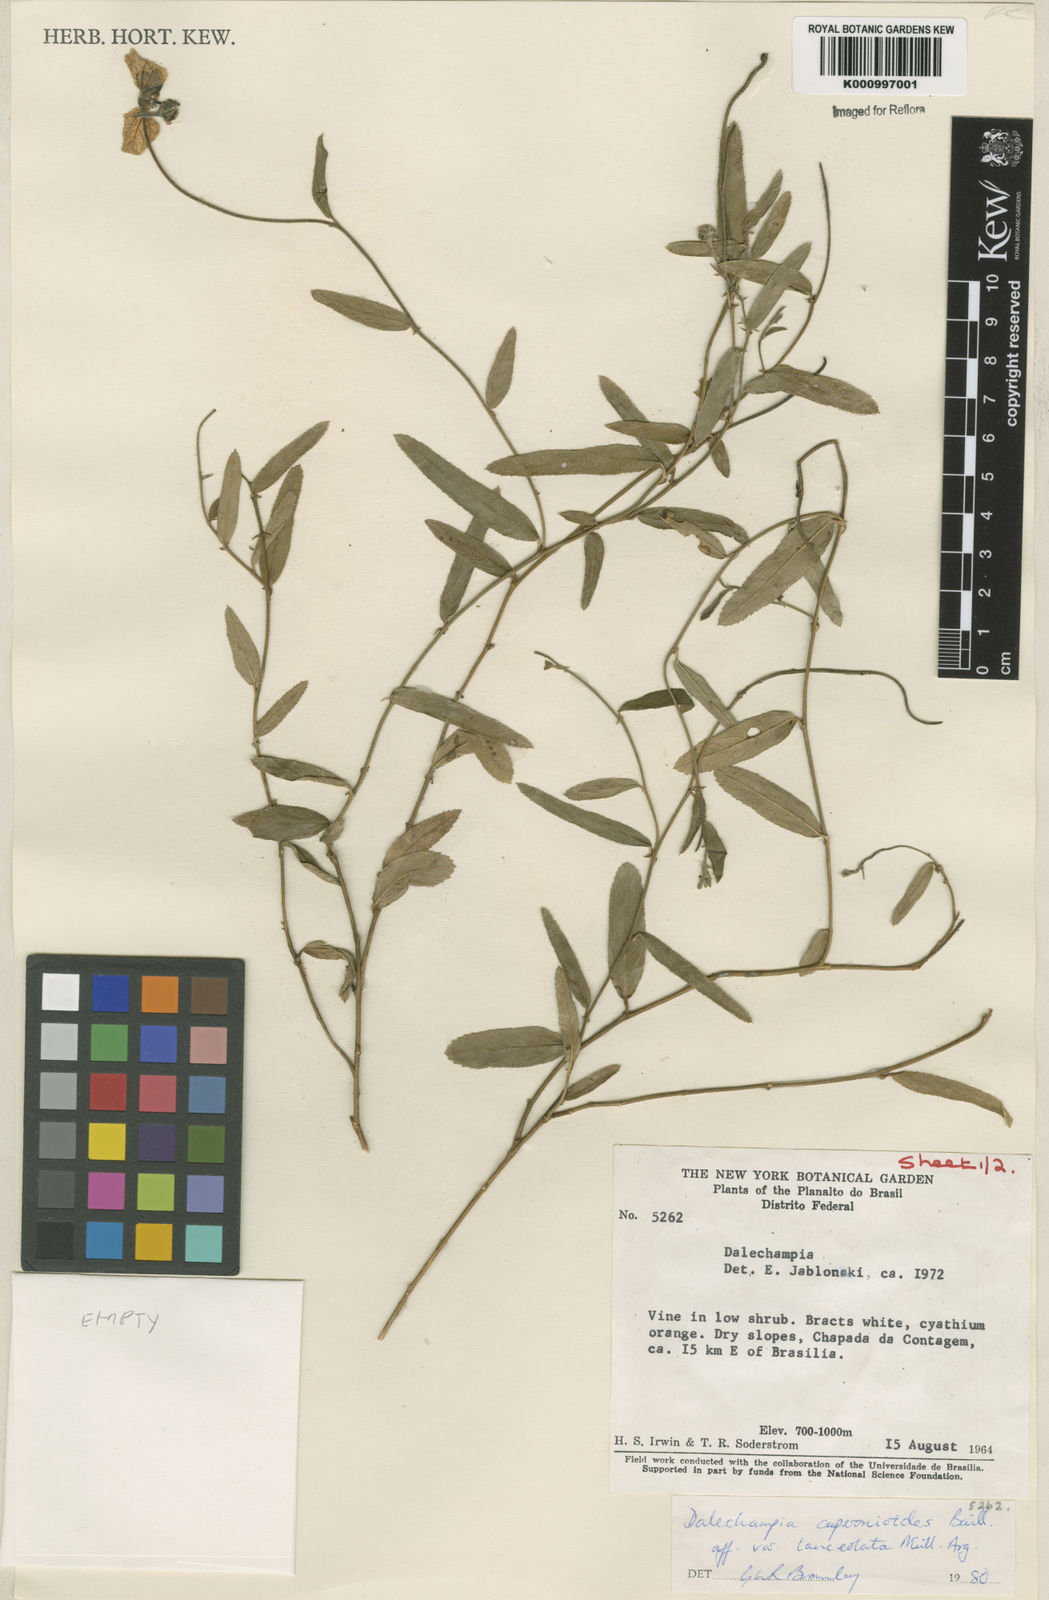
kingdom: Plantae
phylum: Tracheophyta
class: Magnoliopsida
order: Malpighiales
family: Euphorbiaceae
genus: Dalechampia
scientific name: Dalechampia caperonioides
